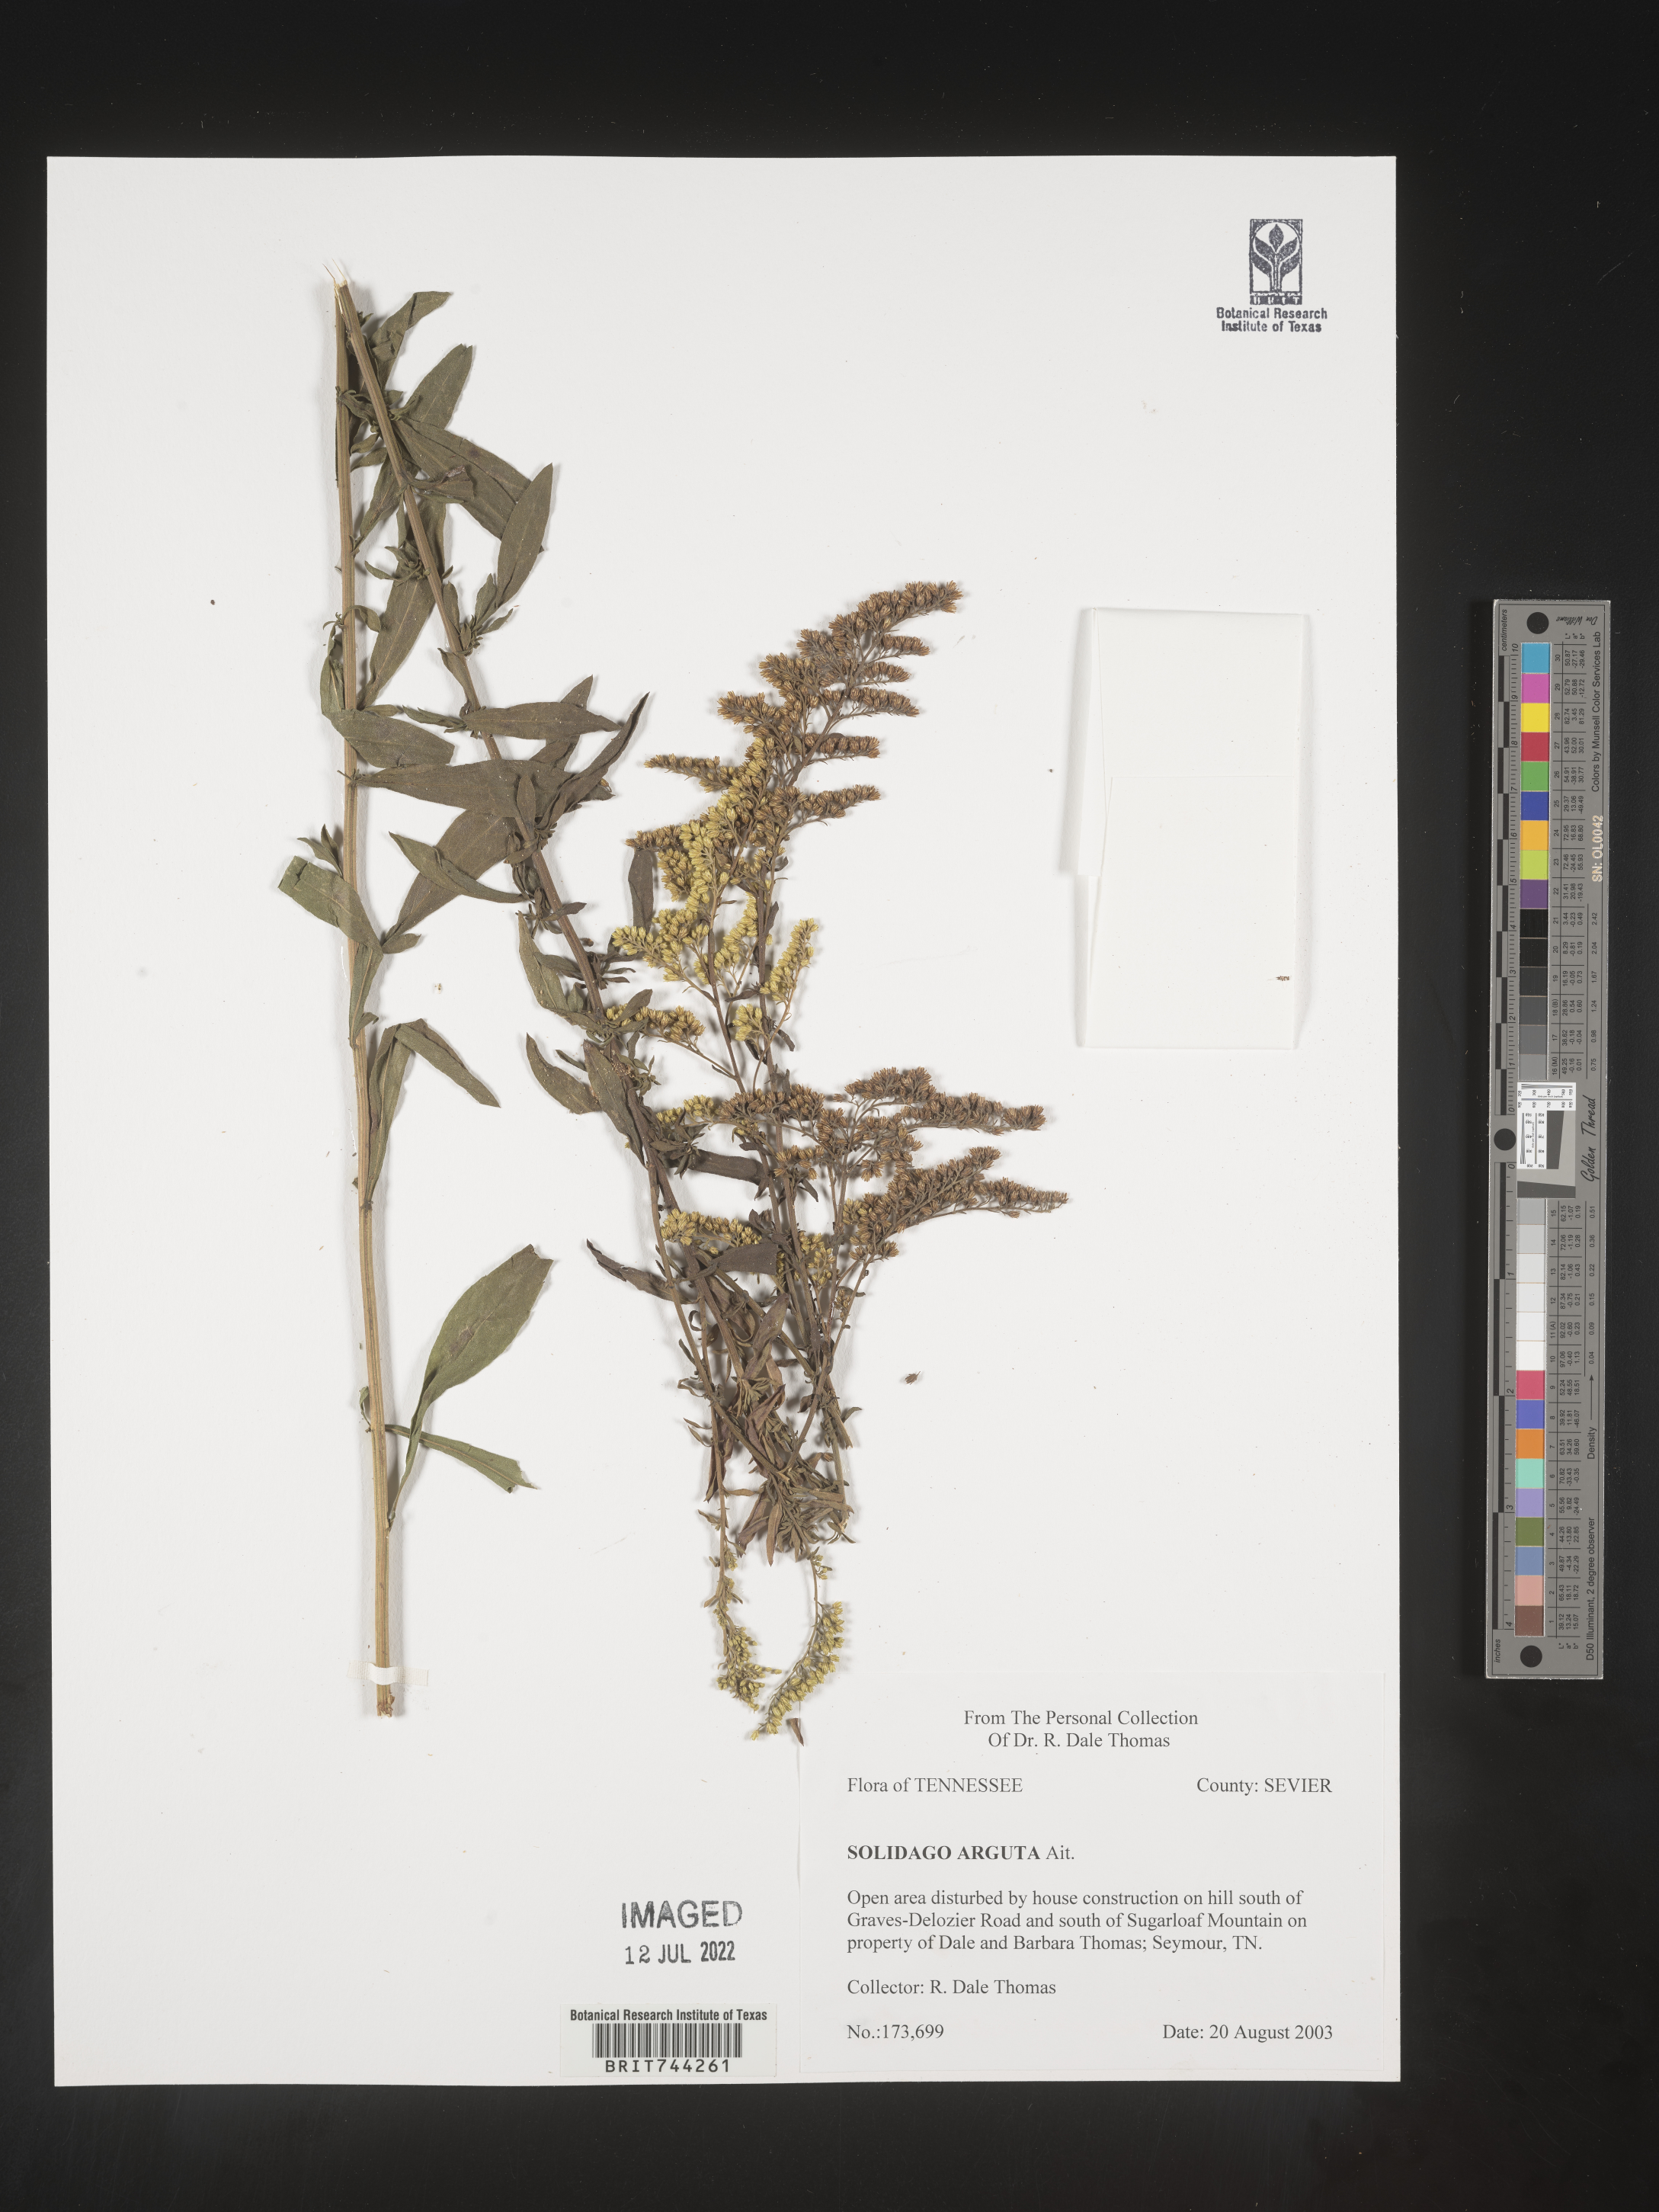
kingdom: Plantae
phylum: Tracheophyta
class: Magnoliopsida
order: Asterales
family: Asteraceae
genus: Solidago
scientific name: Solidago vaseyi
